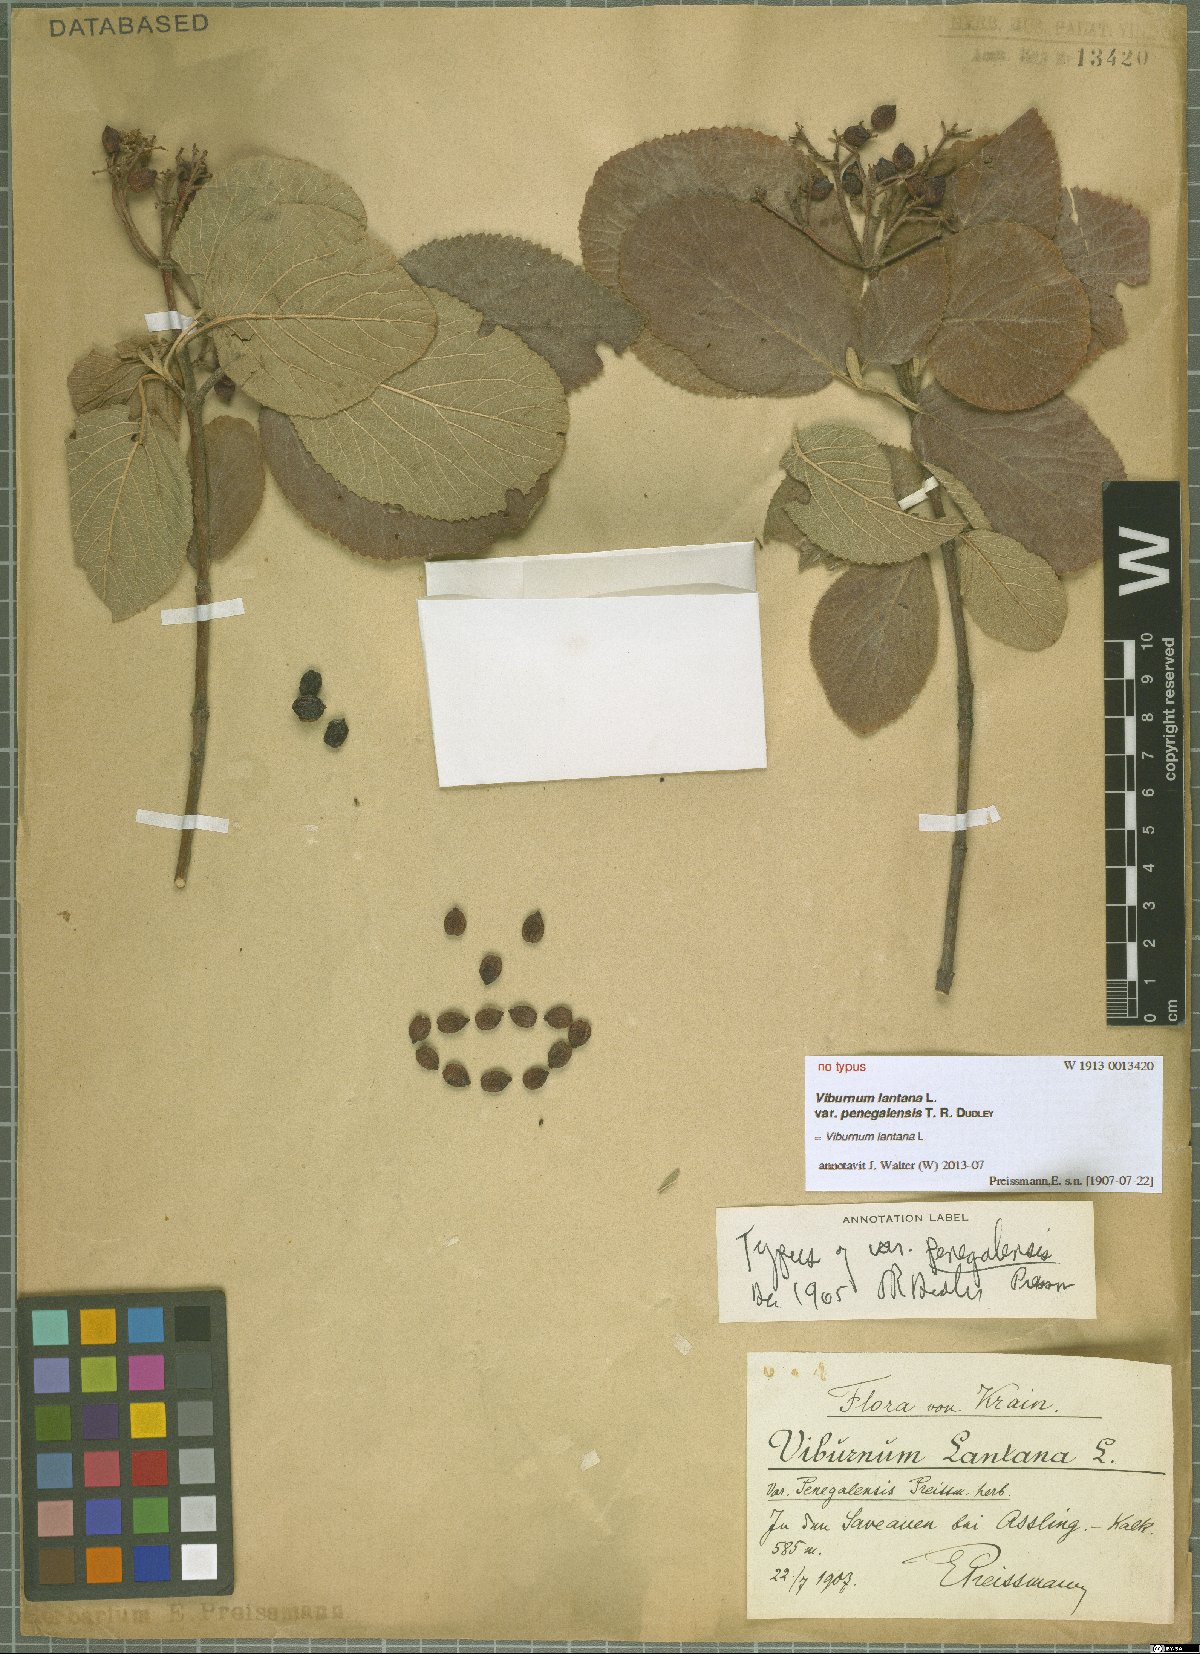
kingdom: Plantae
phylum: Tracheophyta
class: Magnoliopsida
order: Dipsacales
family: Viburnaceae
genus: Viburnum
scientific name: Viburnum lantana
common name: Wayfaring tree
